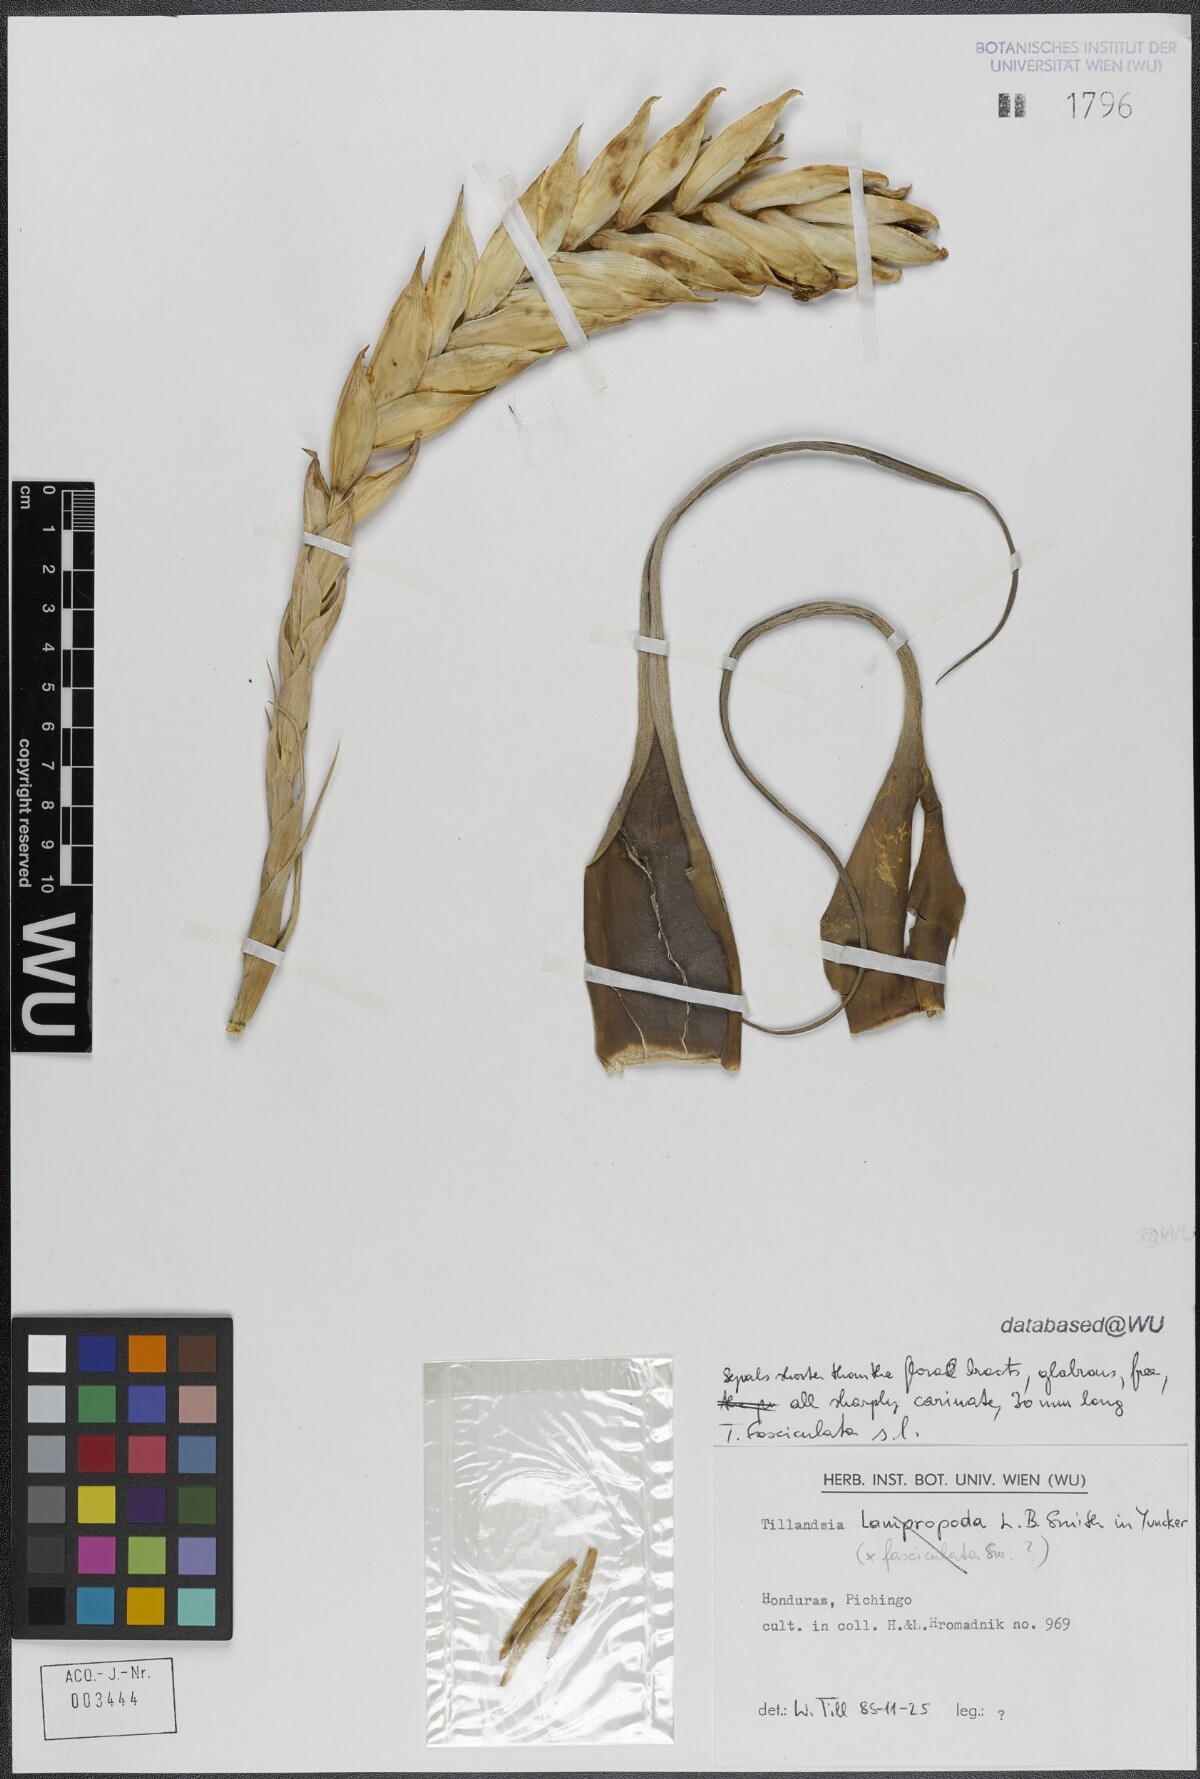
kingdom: Plantae
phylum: Tracheophyta
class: Liliopsida
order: Poales
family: Bromeliaceae
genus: Tillandsia
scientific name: Tillandsia fasciculata
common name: Giant airplant
